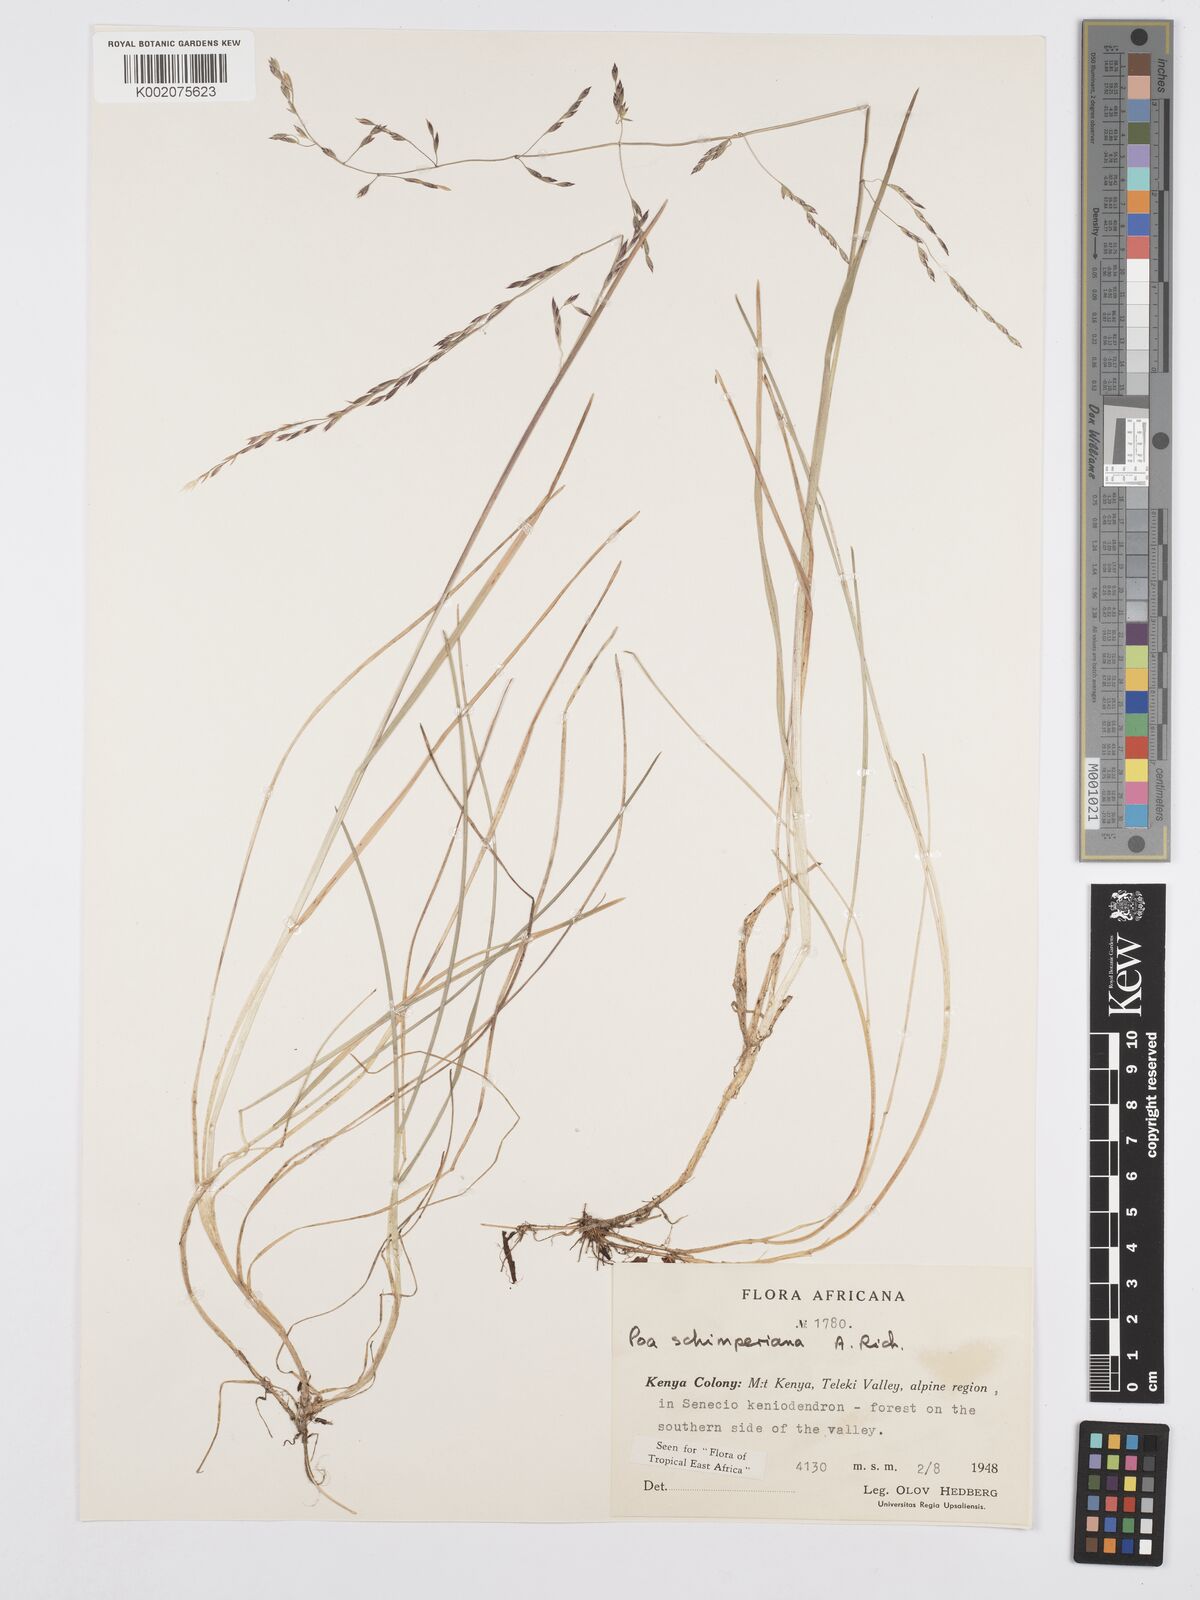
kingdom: Plantae
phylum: Tracheophyta
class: Liliopsida
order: Poales
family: Poaceae
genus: Poa
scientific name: Poa schimperiana
